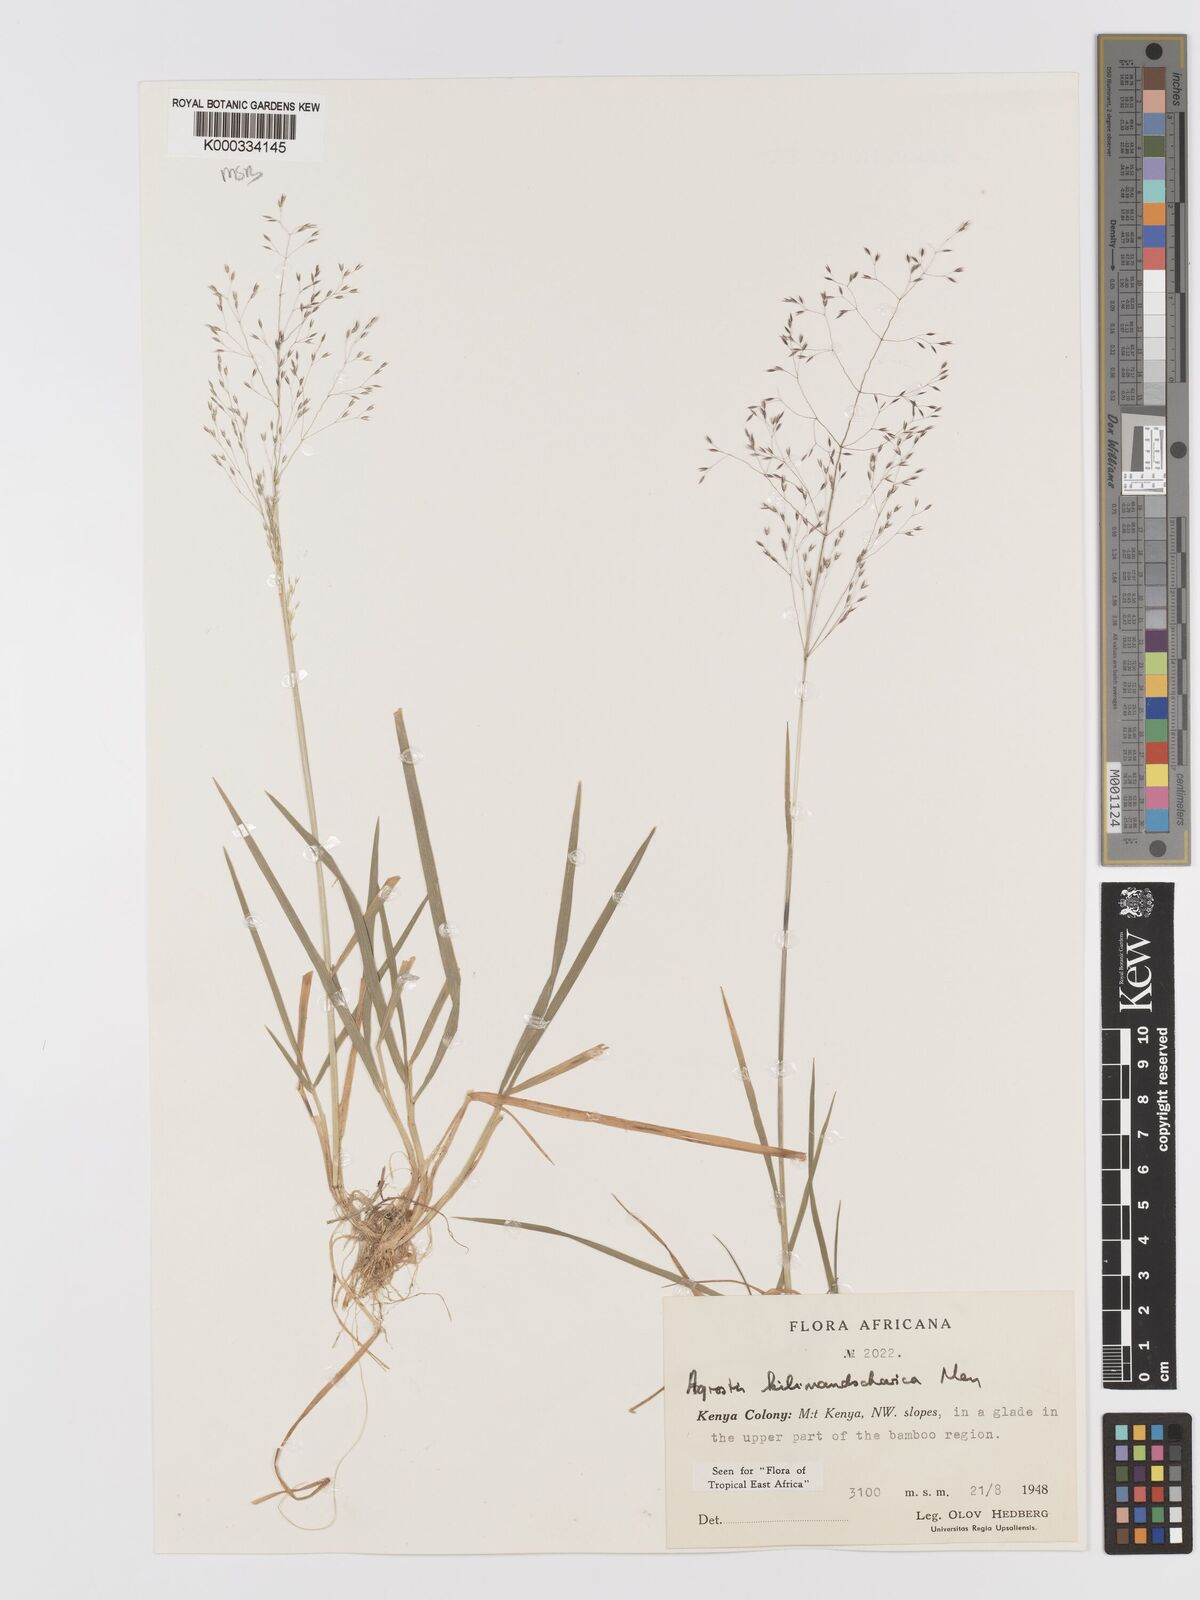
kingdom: Plantae
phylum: Tracheophyta
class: Liliopsida
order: Poales
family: Poaceae
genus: Agrostis
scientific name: Agrostis kilimandscharica
